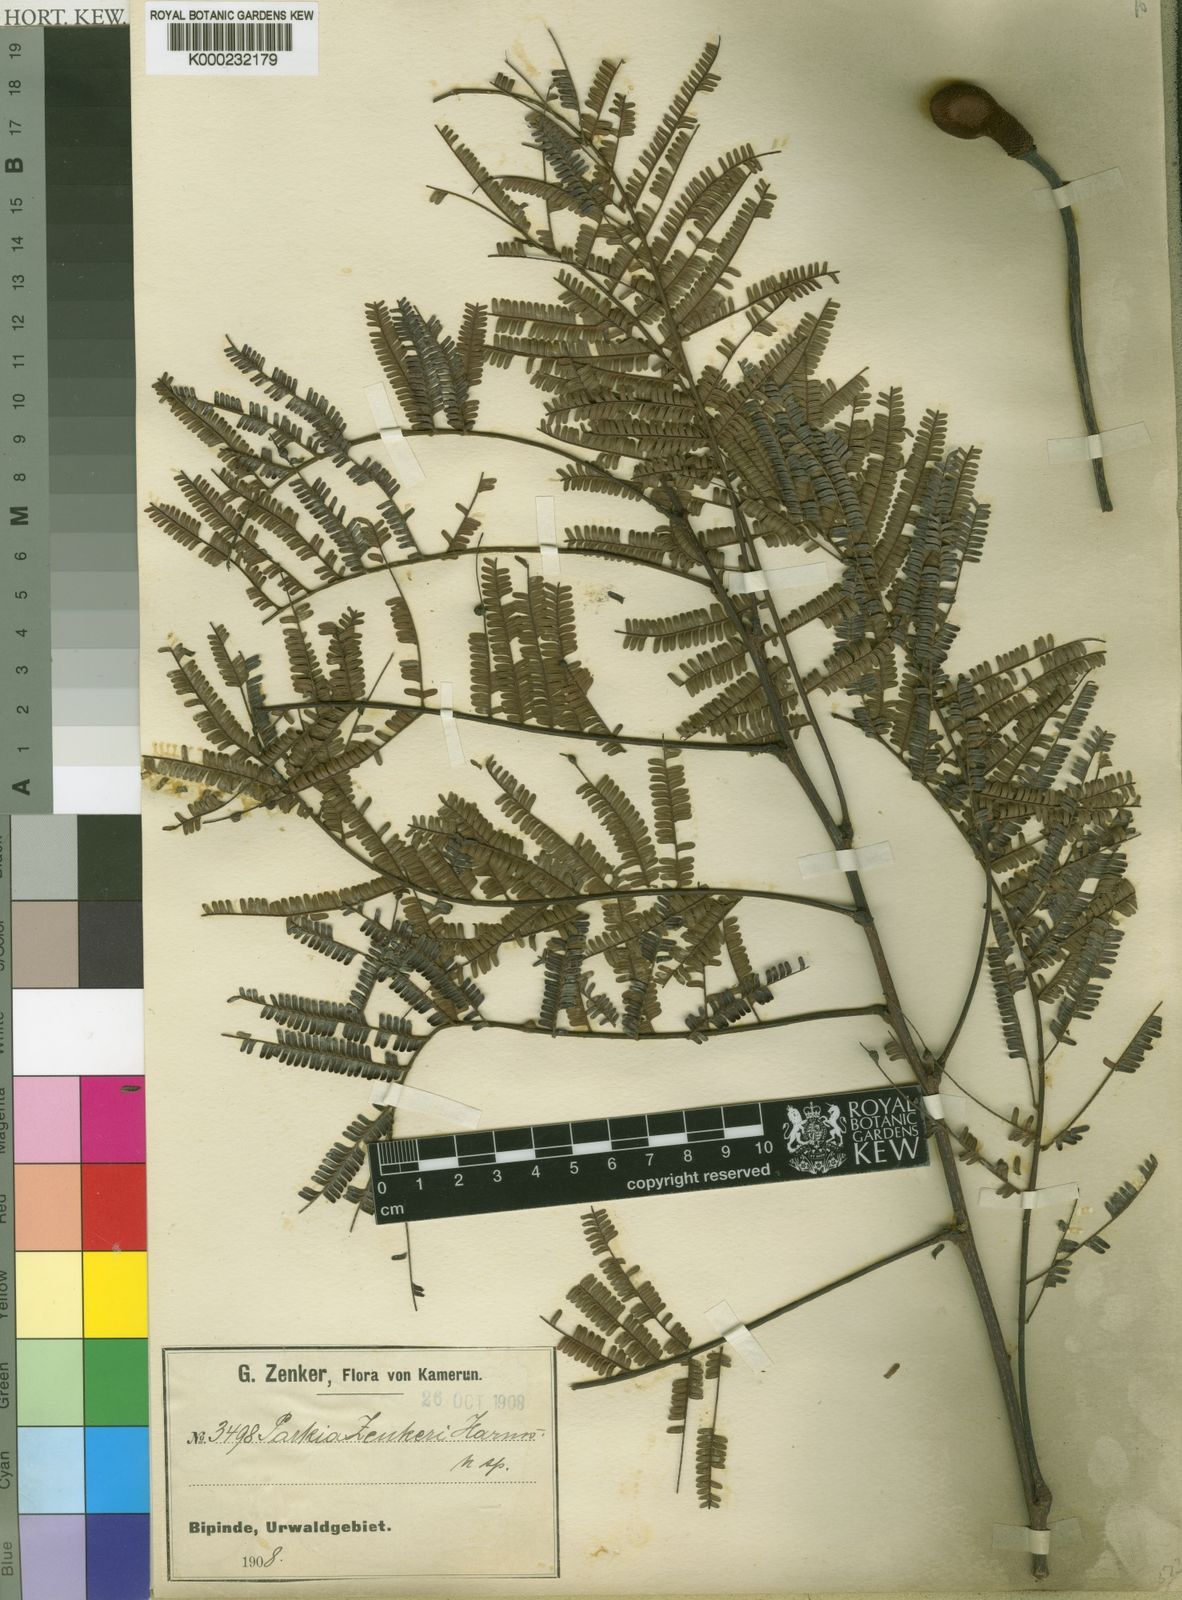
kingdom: Plantae
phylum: Tracheophyta
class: Magnoliopsida
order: Fabales
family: Fabaceae
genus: Parkia
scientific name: Parkia bicolor
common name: African locust-bean
